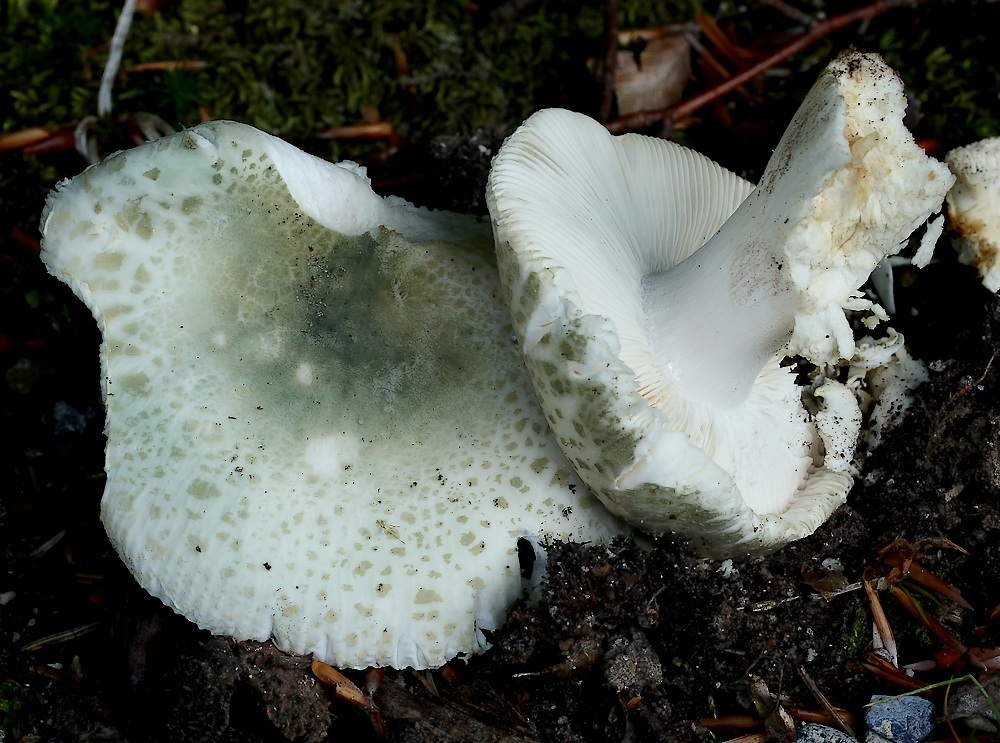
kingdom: Fungi
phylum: Basidiomycota
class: Agaricomycetes
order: Russulales
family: Russulaceae
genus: Russula
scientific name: Russula virescens
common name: spanskgrøn skørhat
